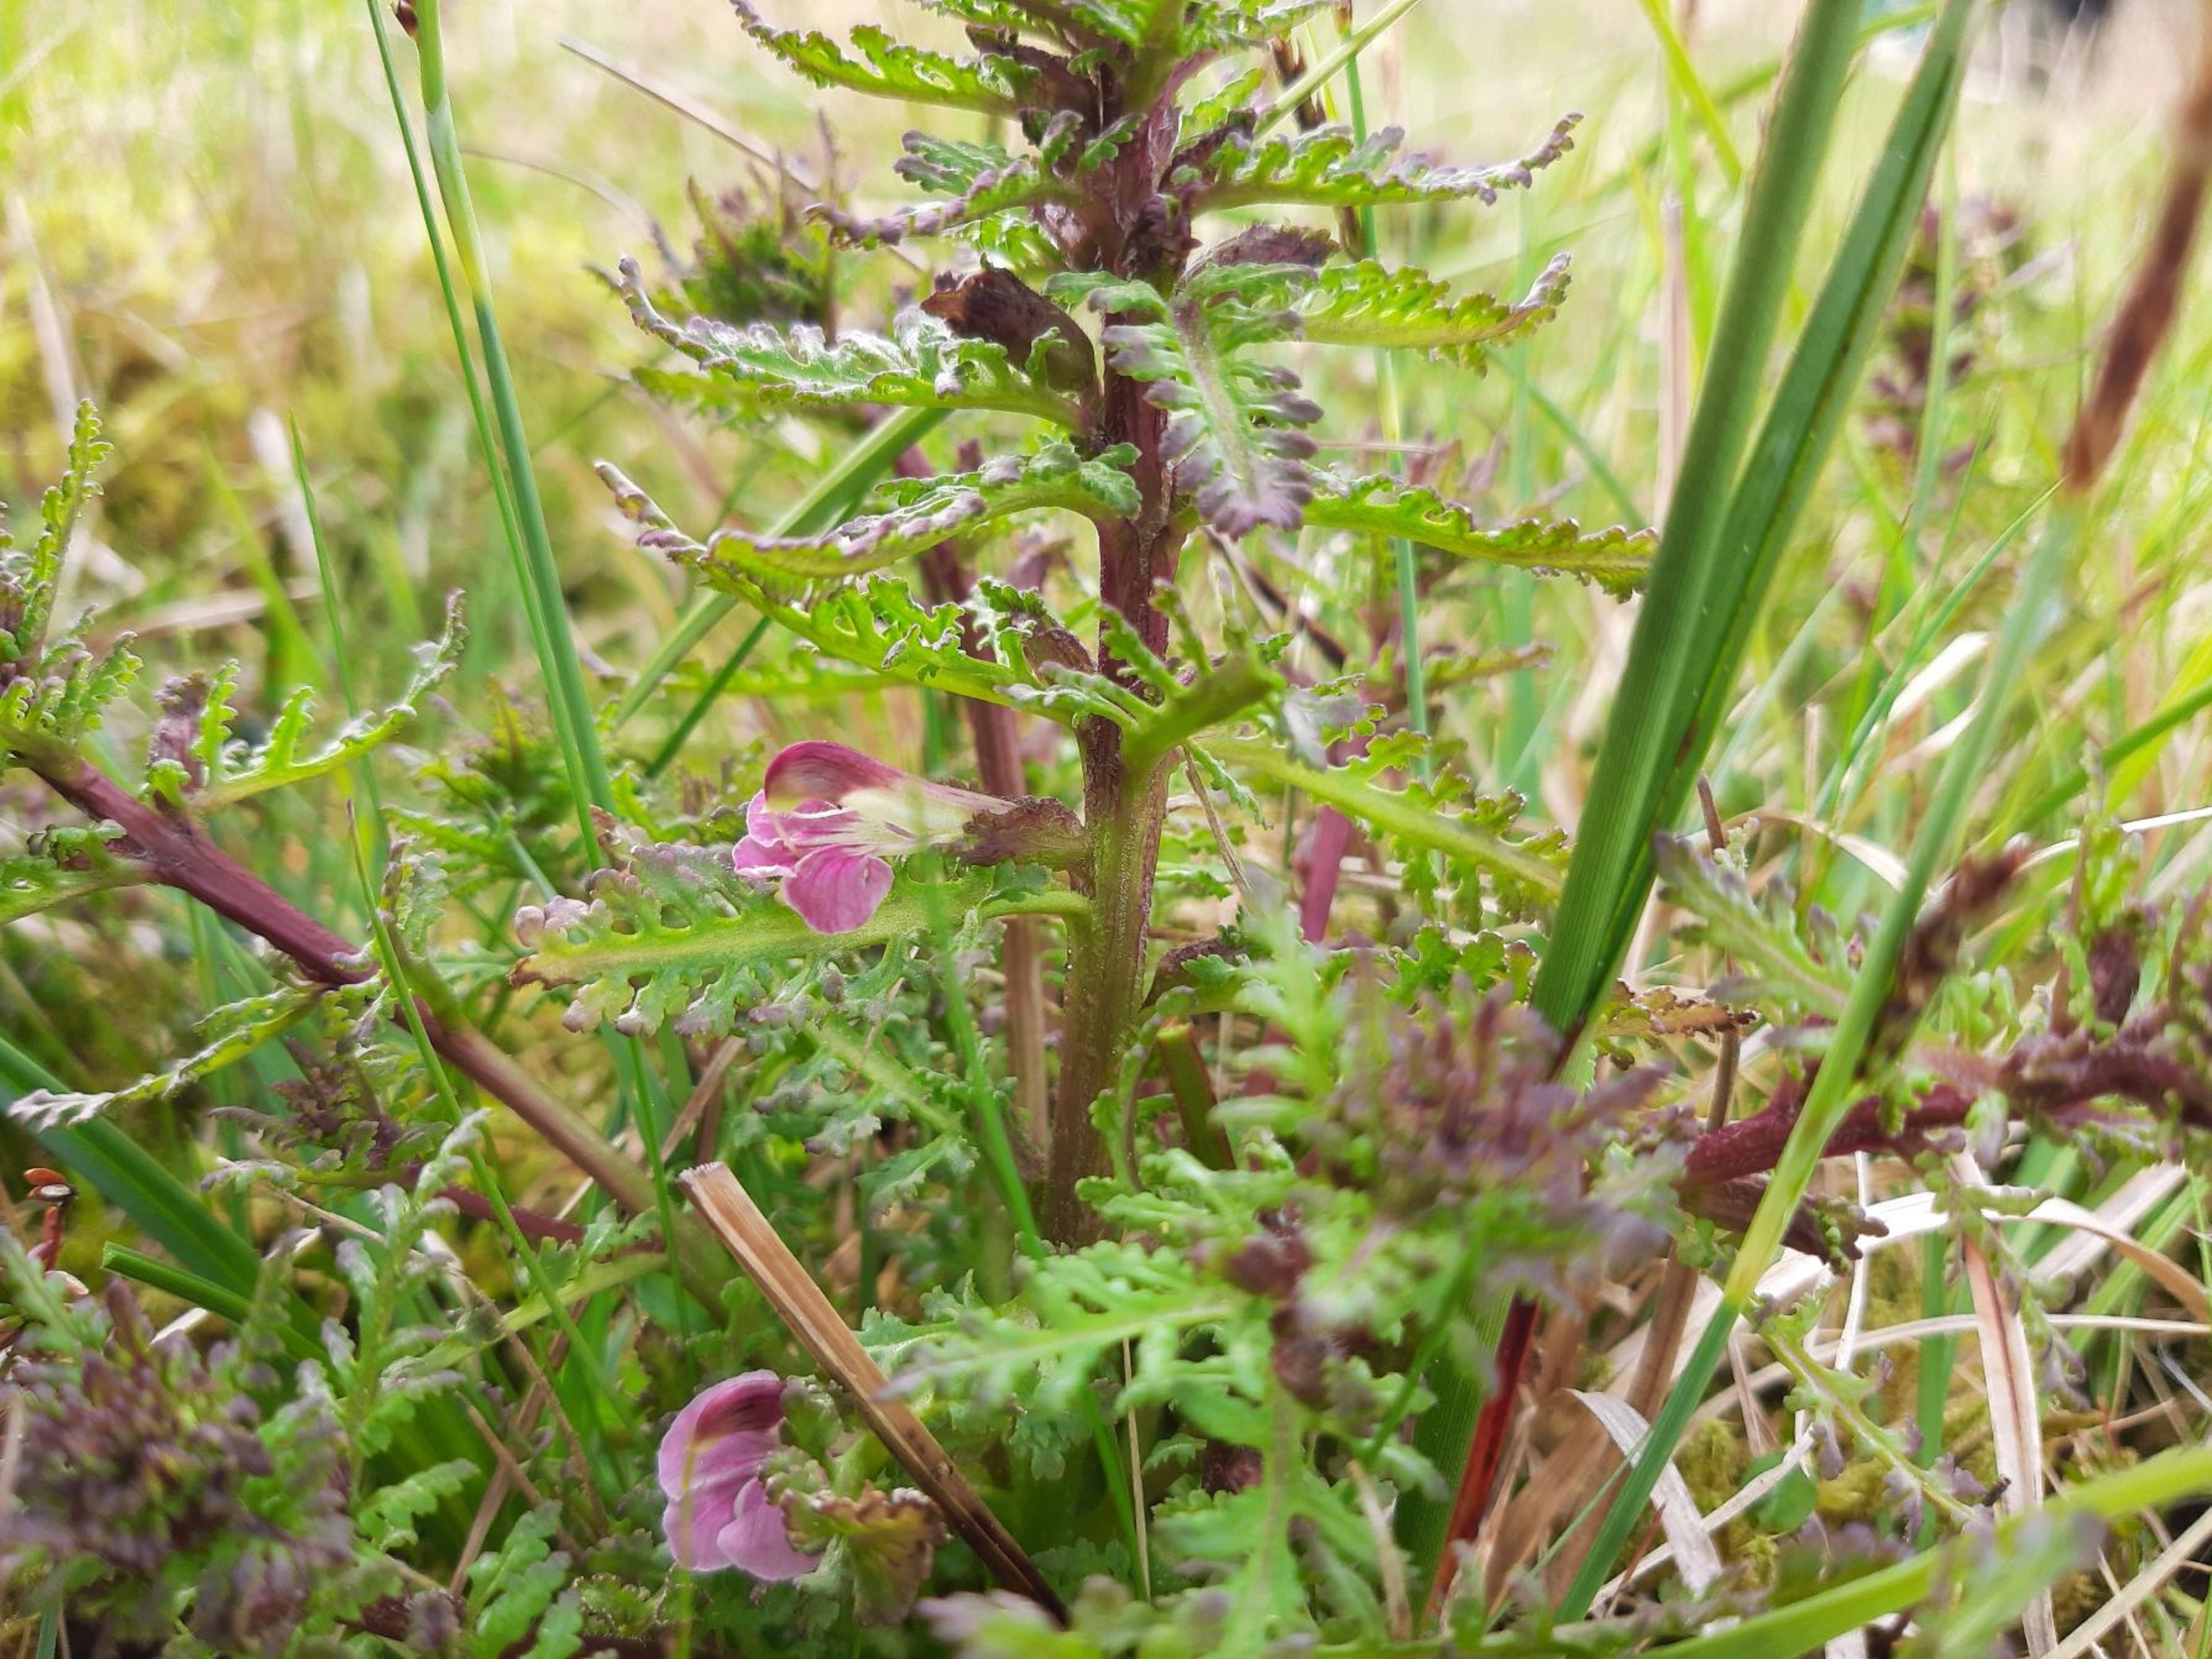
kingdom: Plantae
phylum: Tracheophyta
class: Magnoliopsida
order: Lamiales
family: Orobanchaceae
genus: Pedicularis
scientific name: Pedicularis palustris
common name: Eng-troldurt
